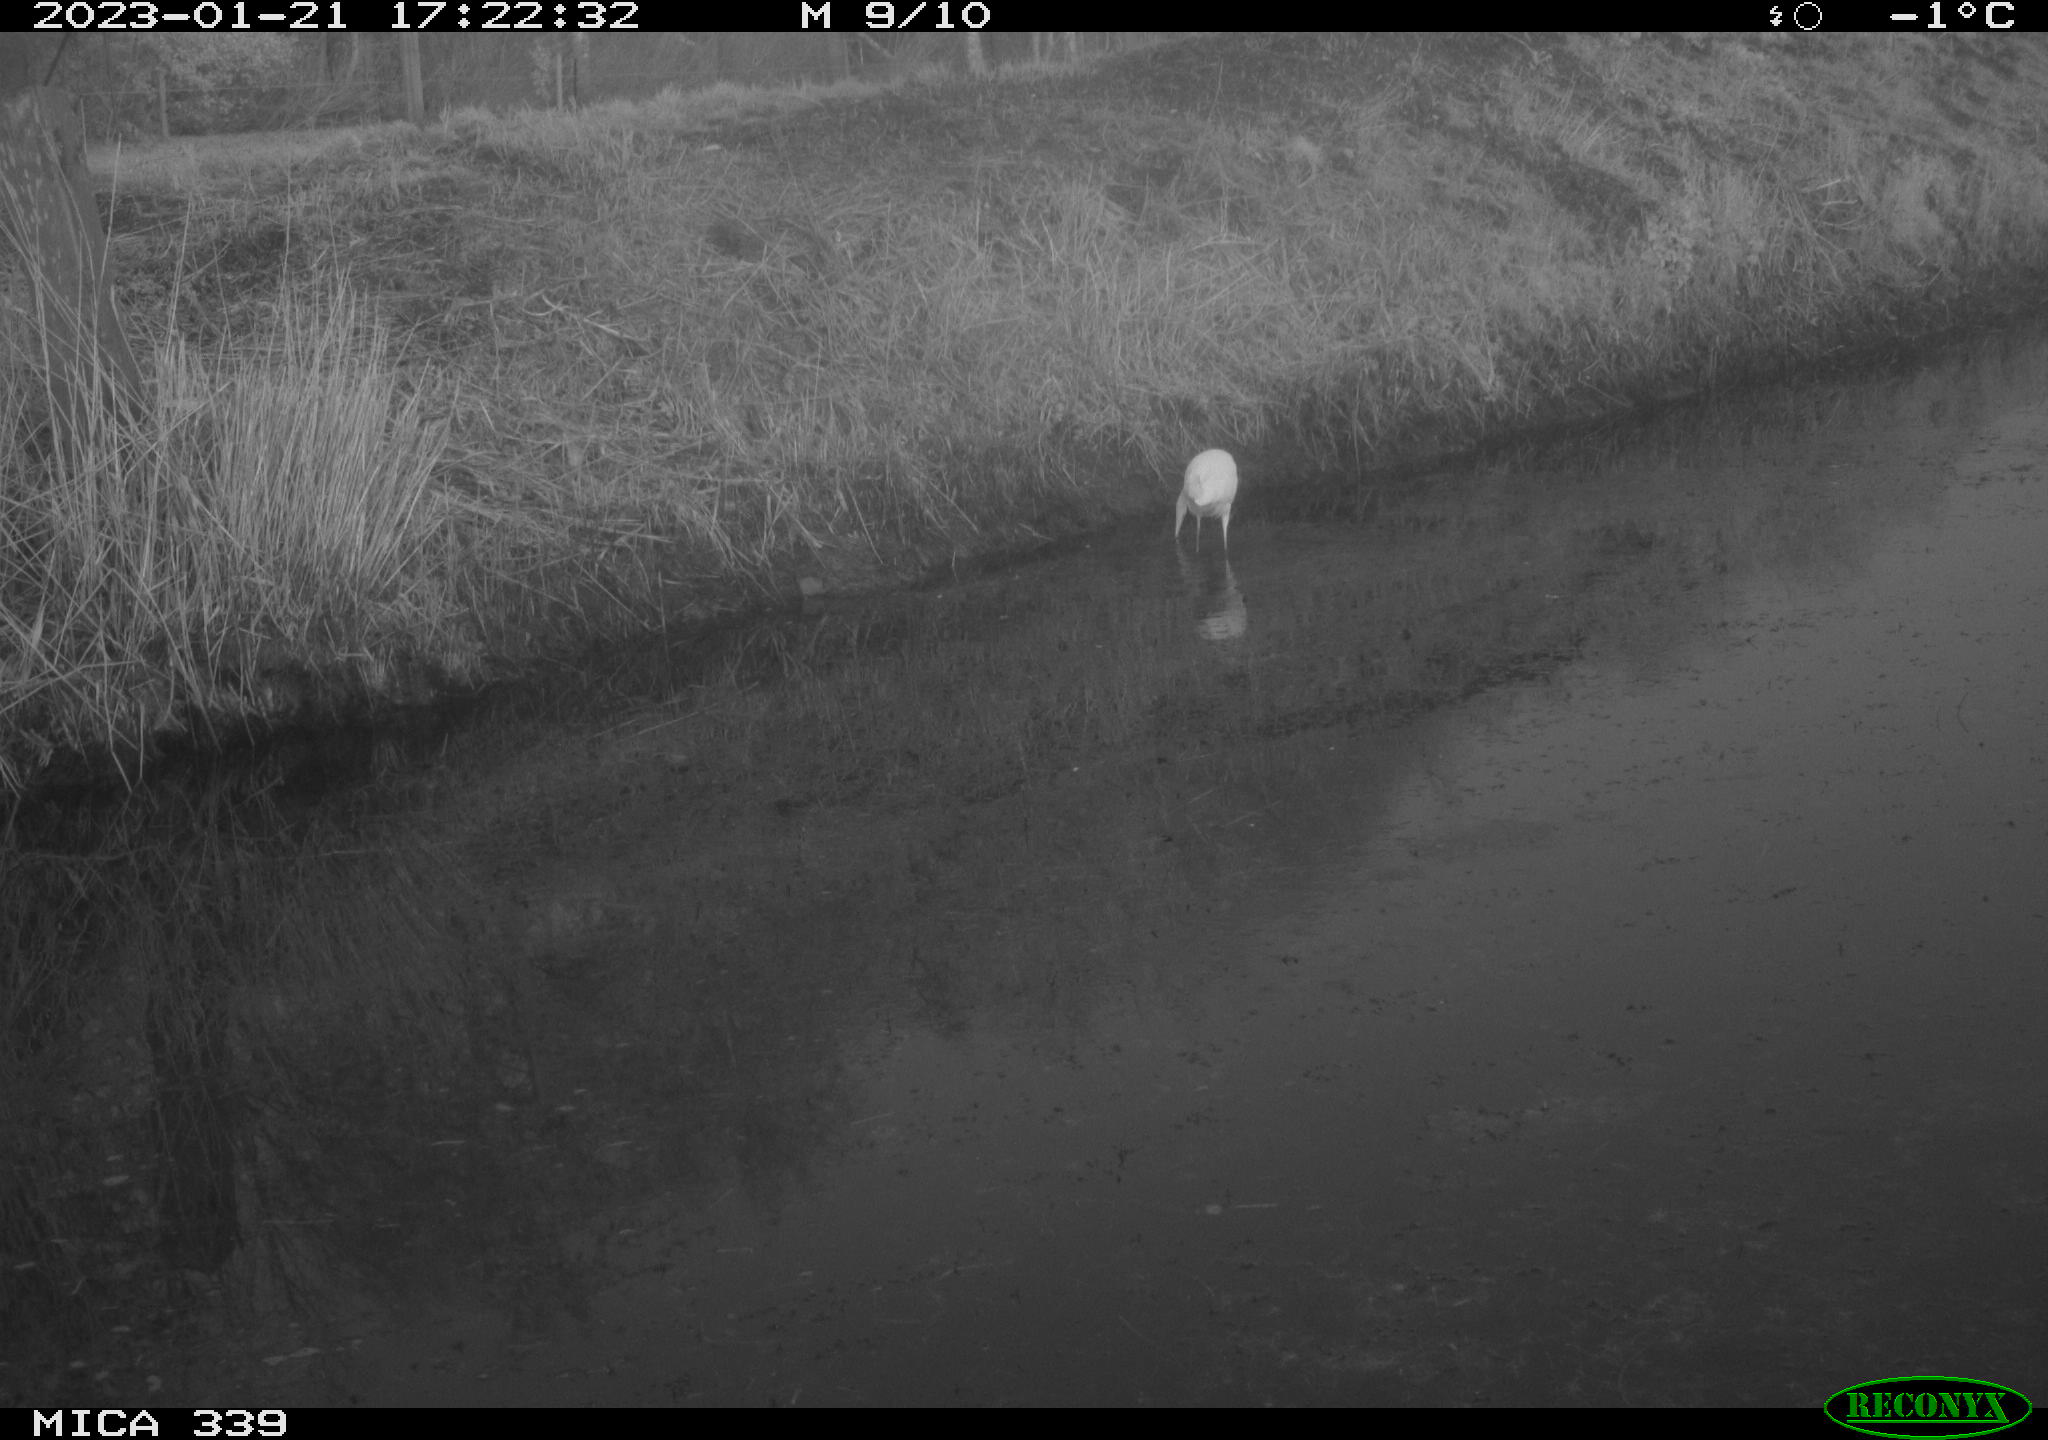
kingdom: Animalia
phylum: Chordata
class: Aves
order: Pelecaniformes
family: Ardeidae
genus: Ardea
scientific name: Ardea alba
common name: Great egret
